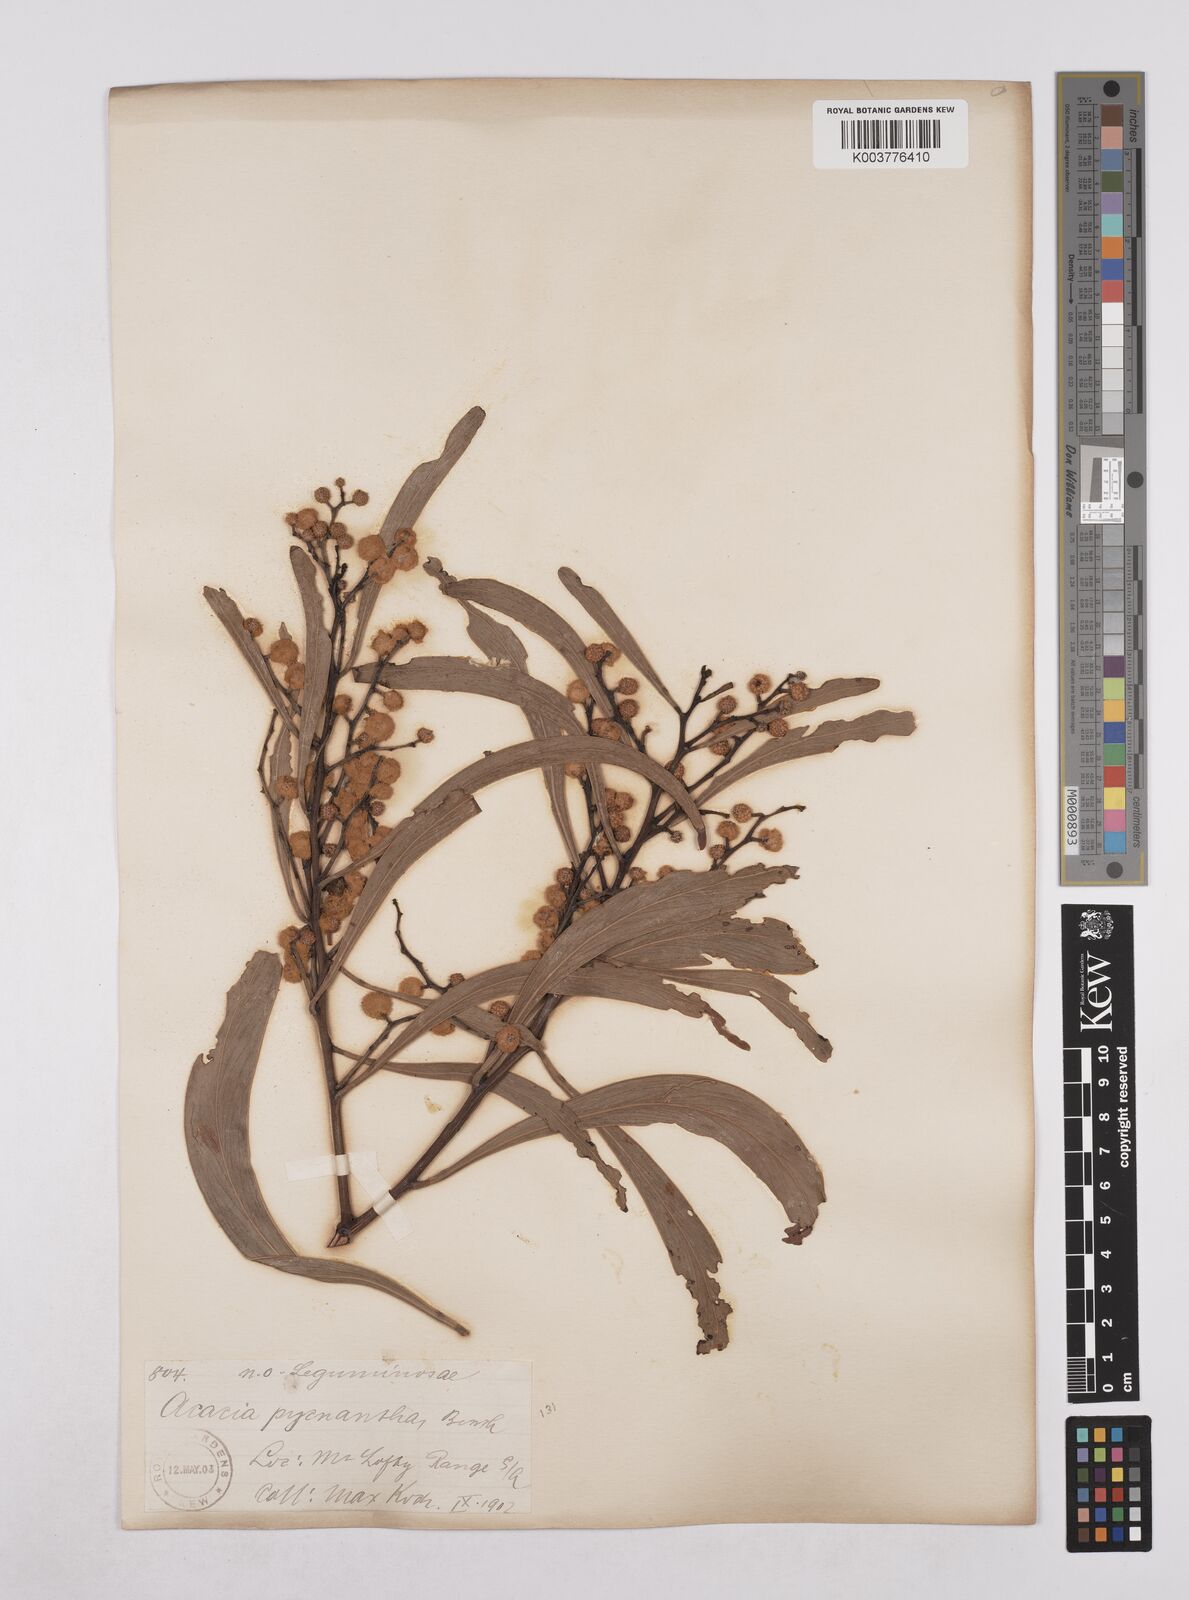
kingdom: Plantae
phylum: Tracheophyta
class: Magnoliopsida
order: Fabales
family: Fabaceae
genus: Acacia
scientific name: Acacia pycnantha
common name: Golden wattle
